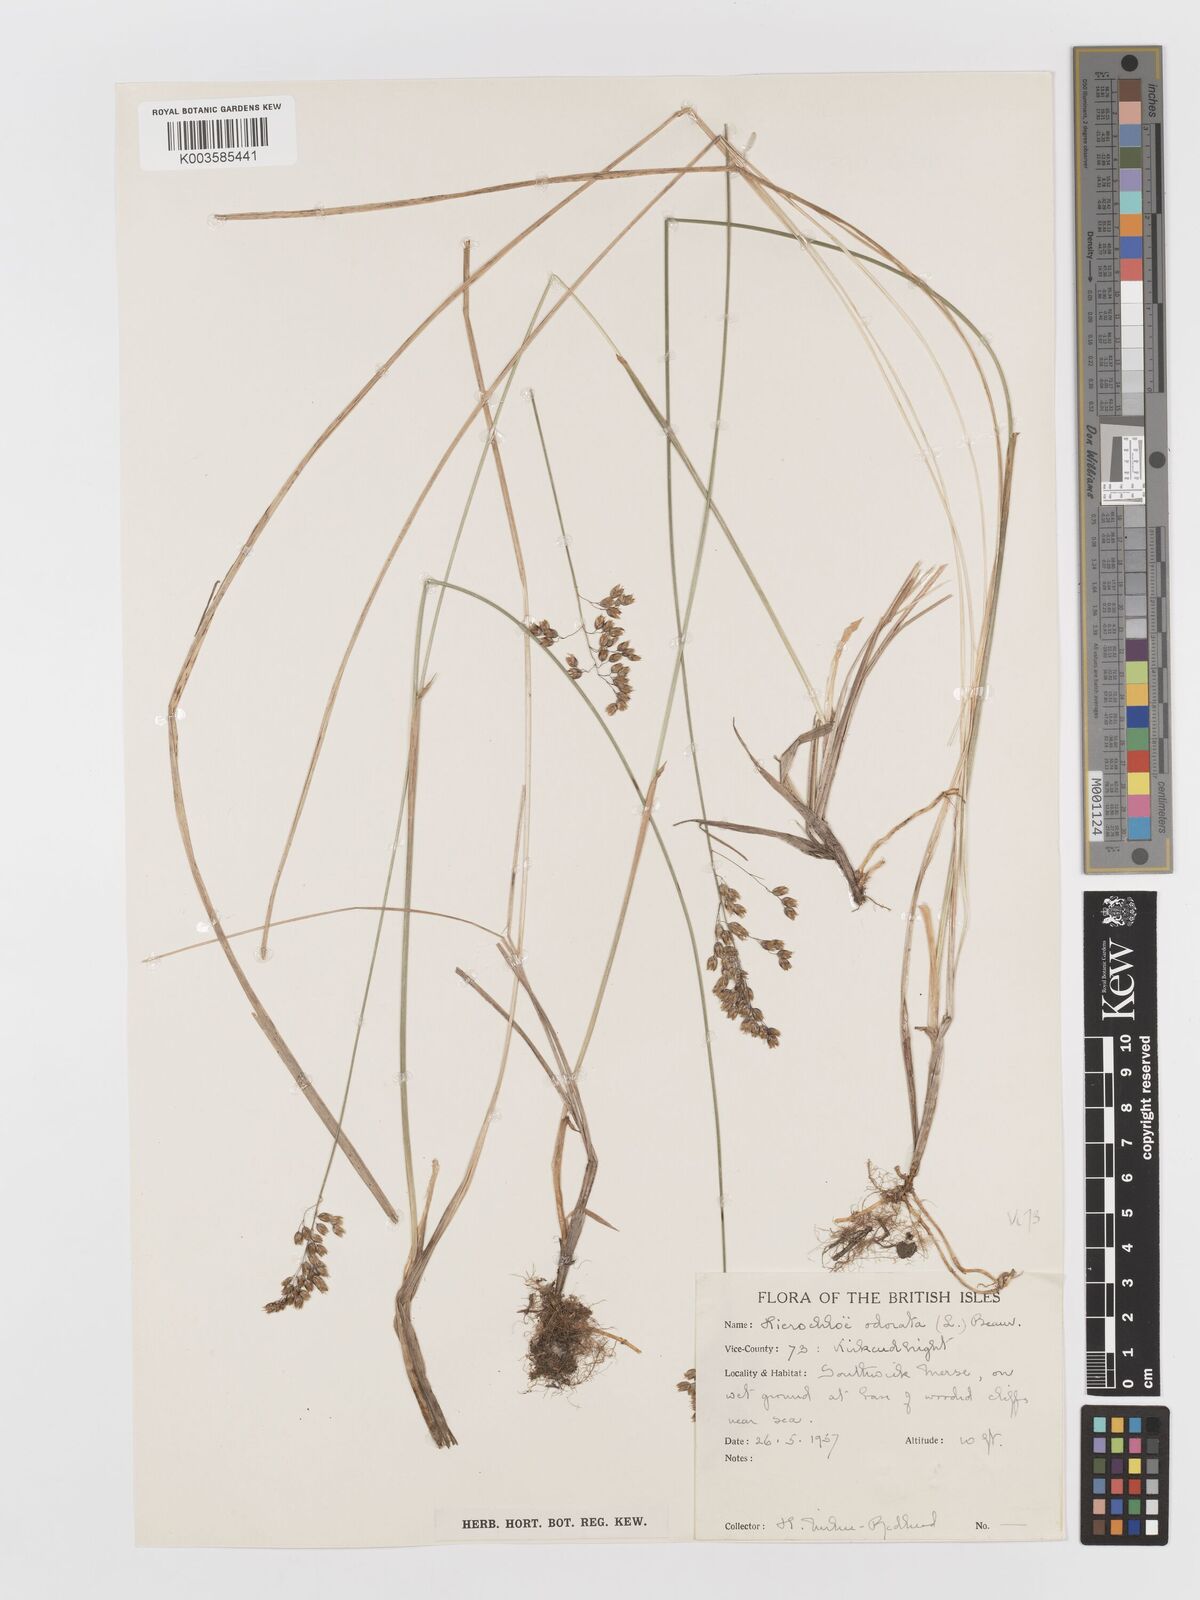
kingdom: Plantae
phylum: Tracheophyta
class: Liliopsida
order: Poales
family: Poaceae
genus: Anthoxanthum
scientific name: Anthoxanthum nitens
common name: Holy grass
